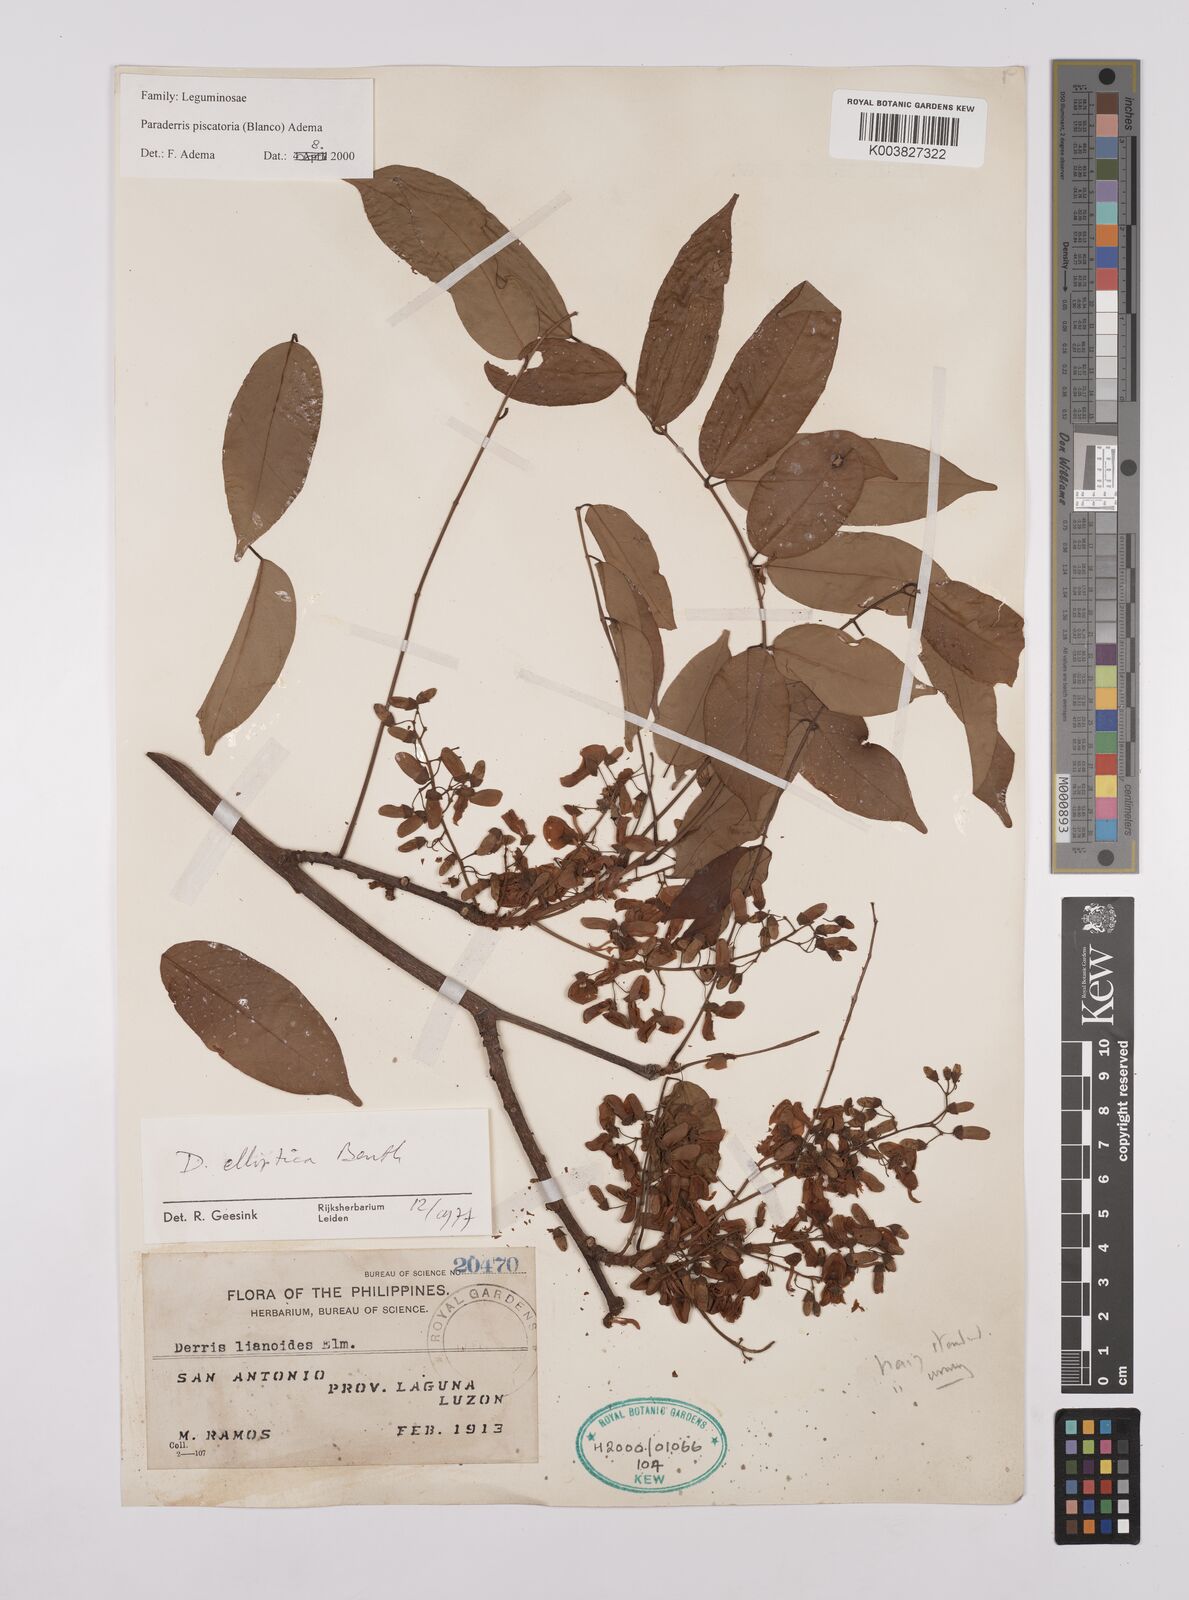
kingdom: Plantae
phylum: Tracheophyta
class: Magnoliopsida
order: Fabales
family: Fabaceae
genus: Derris
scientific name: Derris piscatoria
